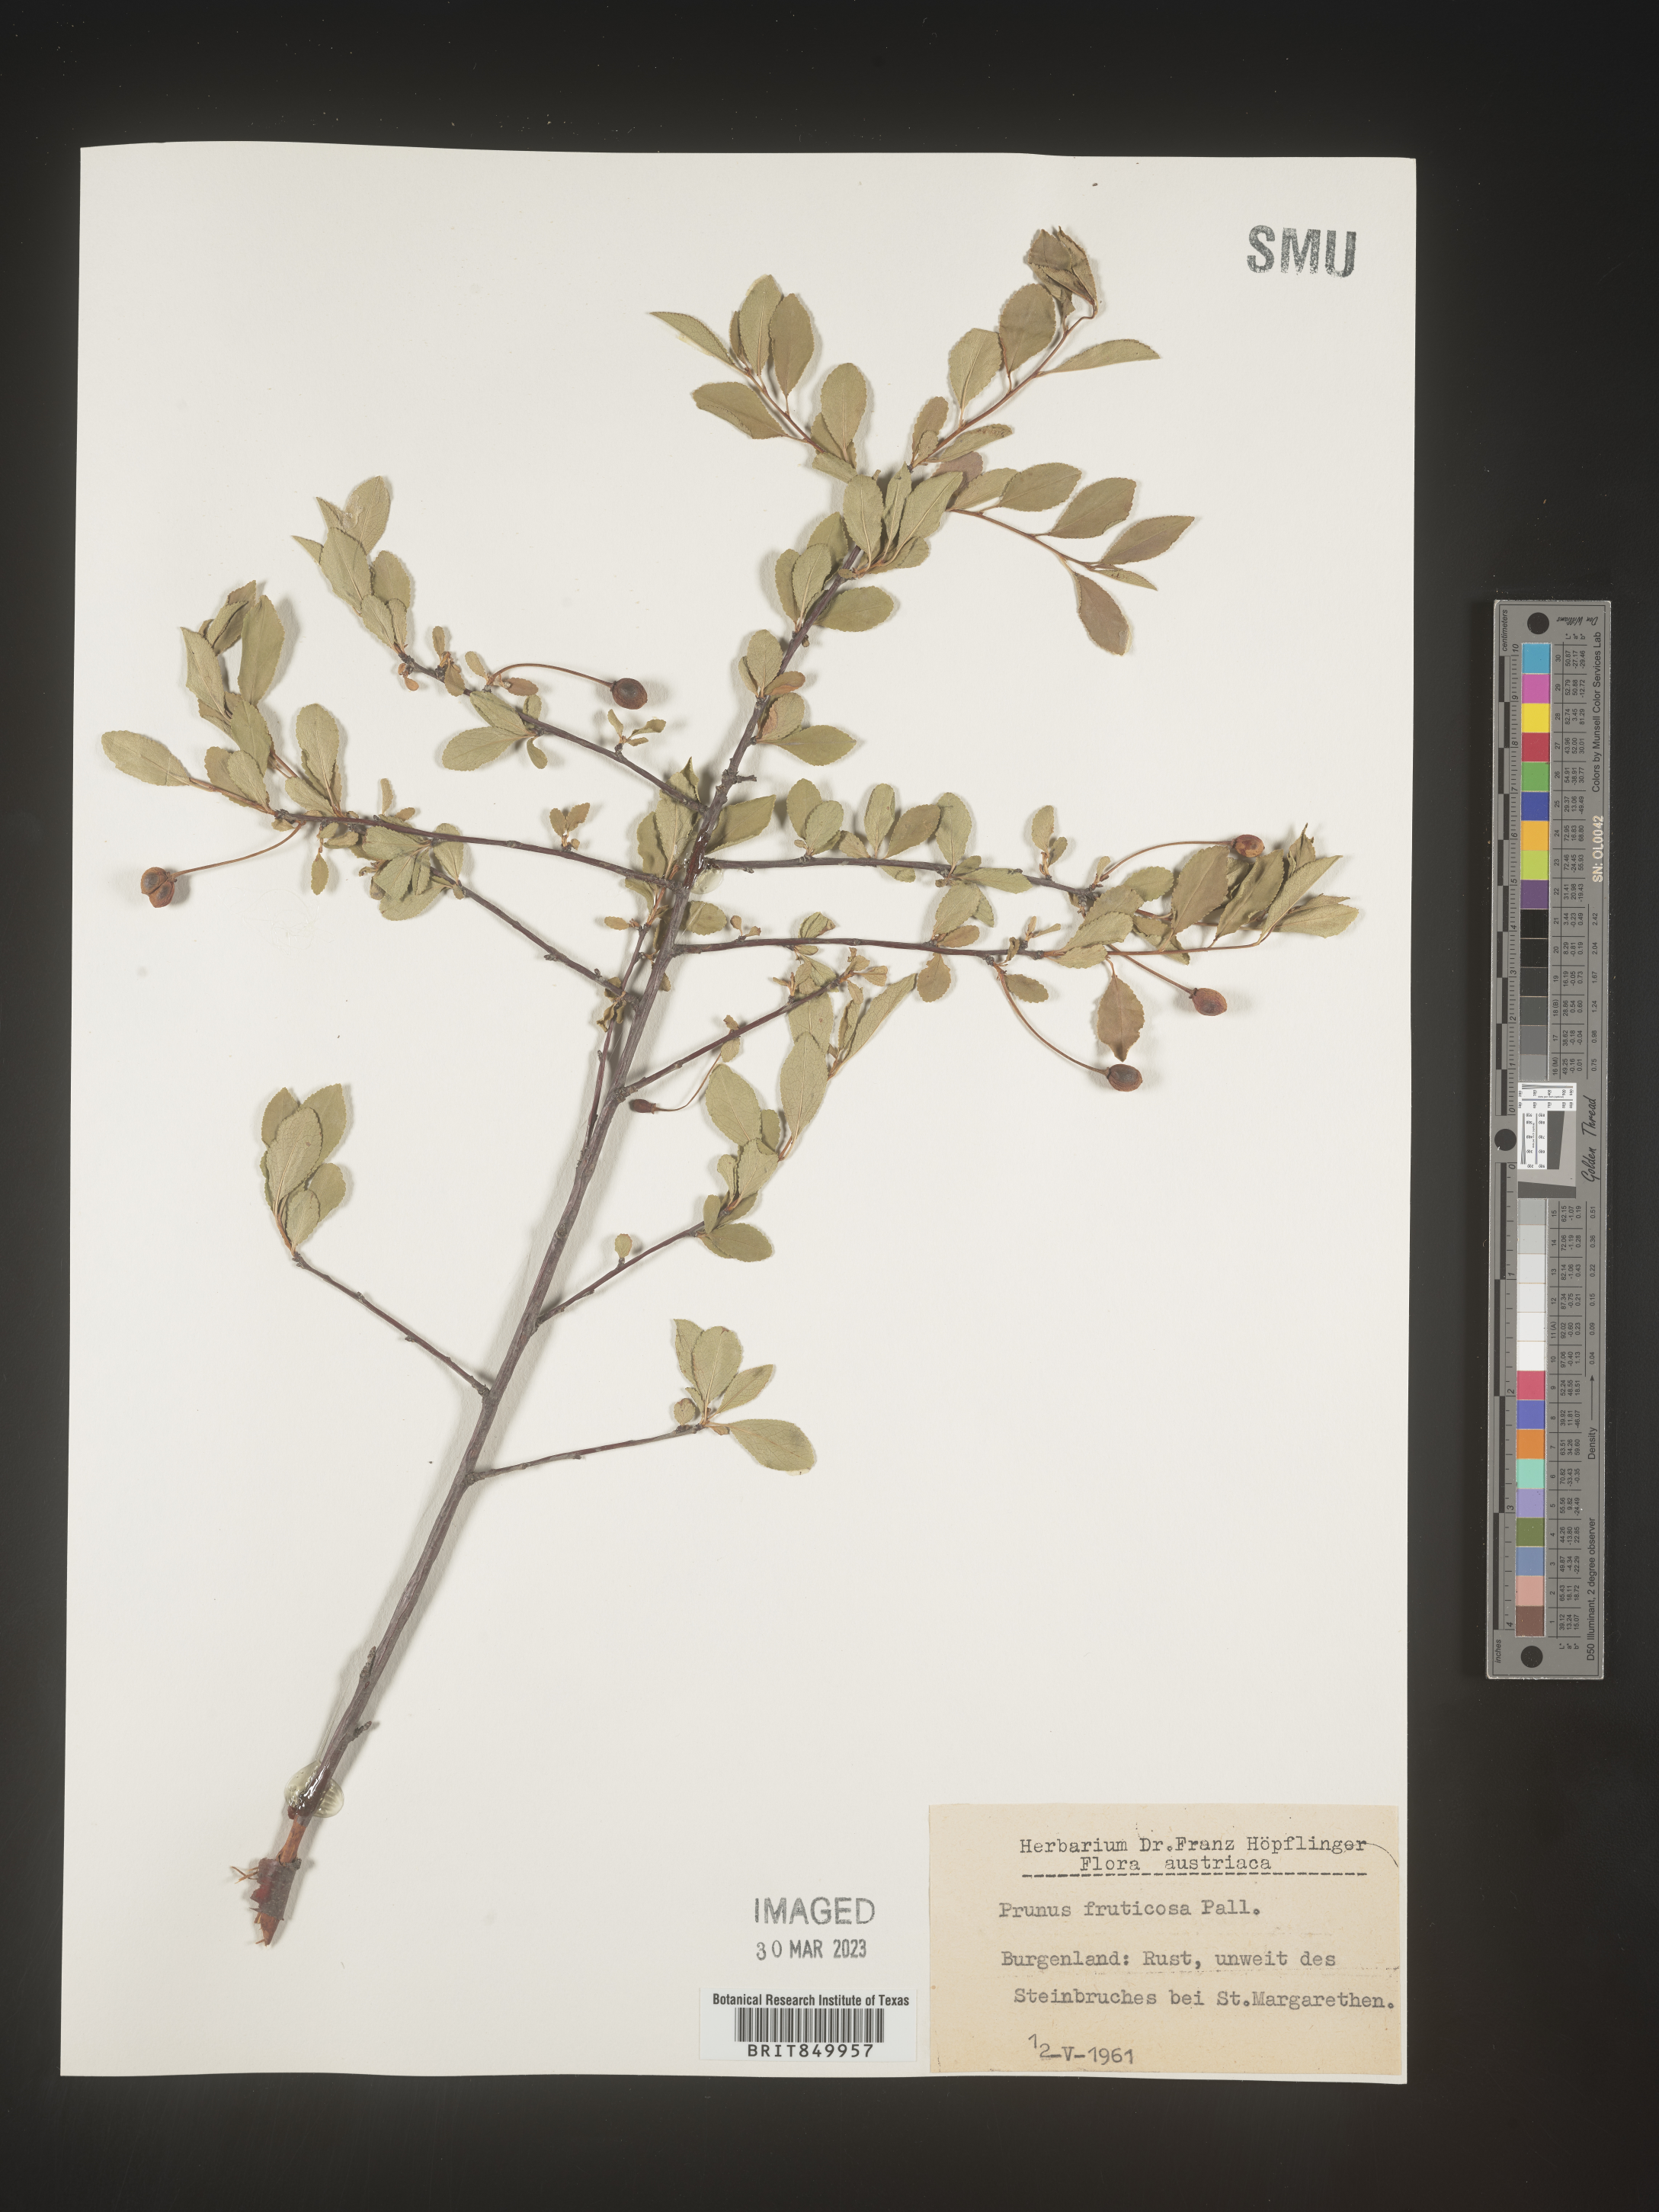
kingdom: Plantae
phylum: Tracheophyta
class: Magnoliopsida
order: Rosales
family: Rosaceae
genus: Prunus
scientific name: Prunus
